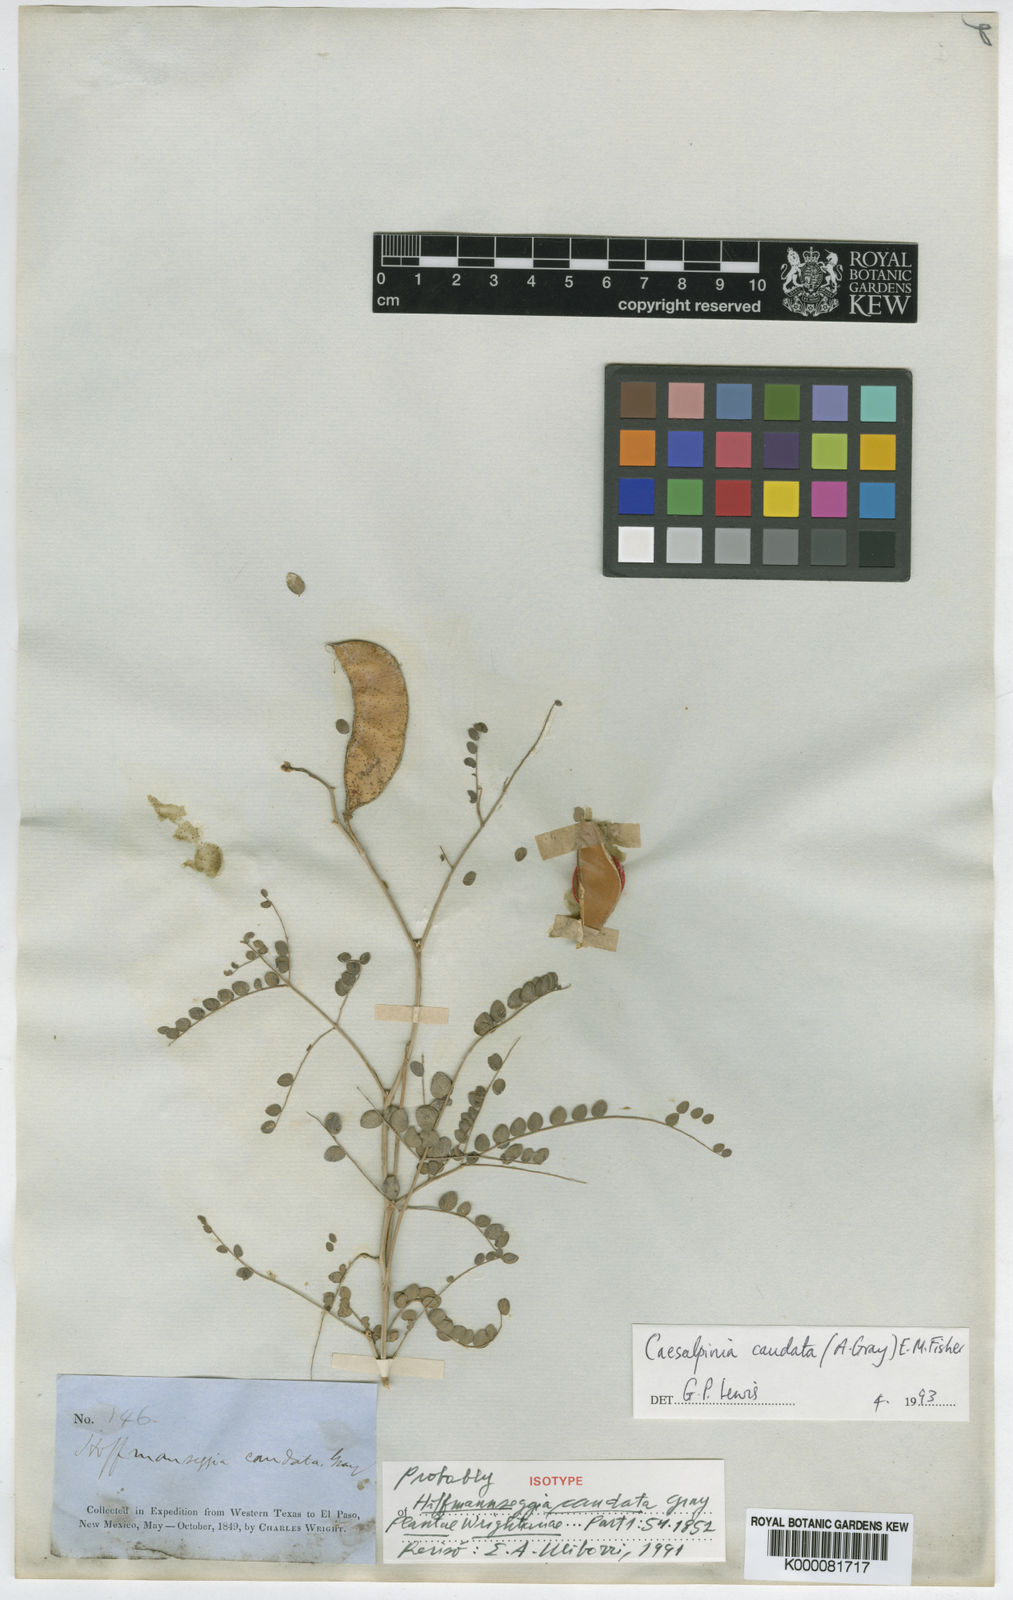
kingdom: Plantae
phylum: Tracheophyta
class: Magnoliopsida
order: Fabales
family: Fabaceae
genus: Erythrostemon
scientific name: Erythrostemon caudatus
